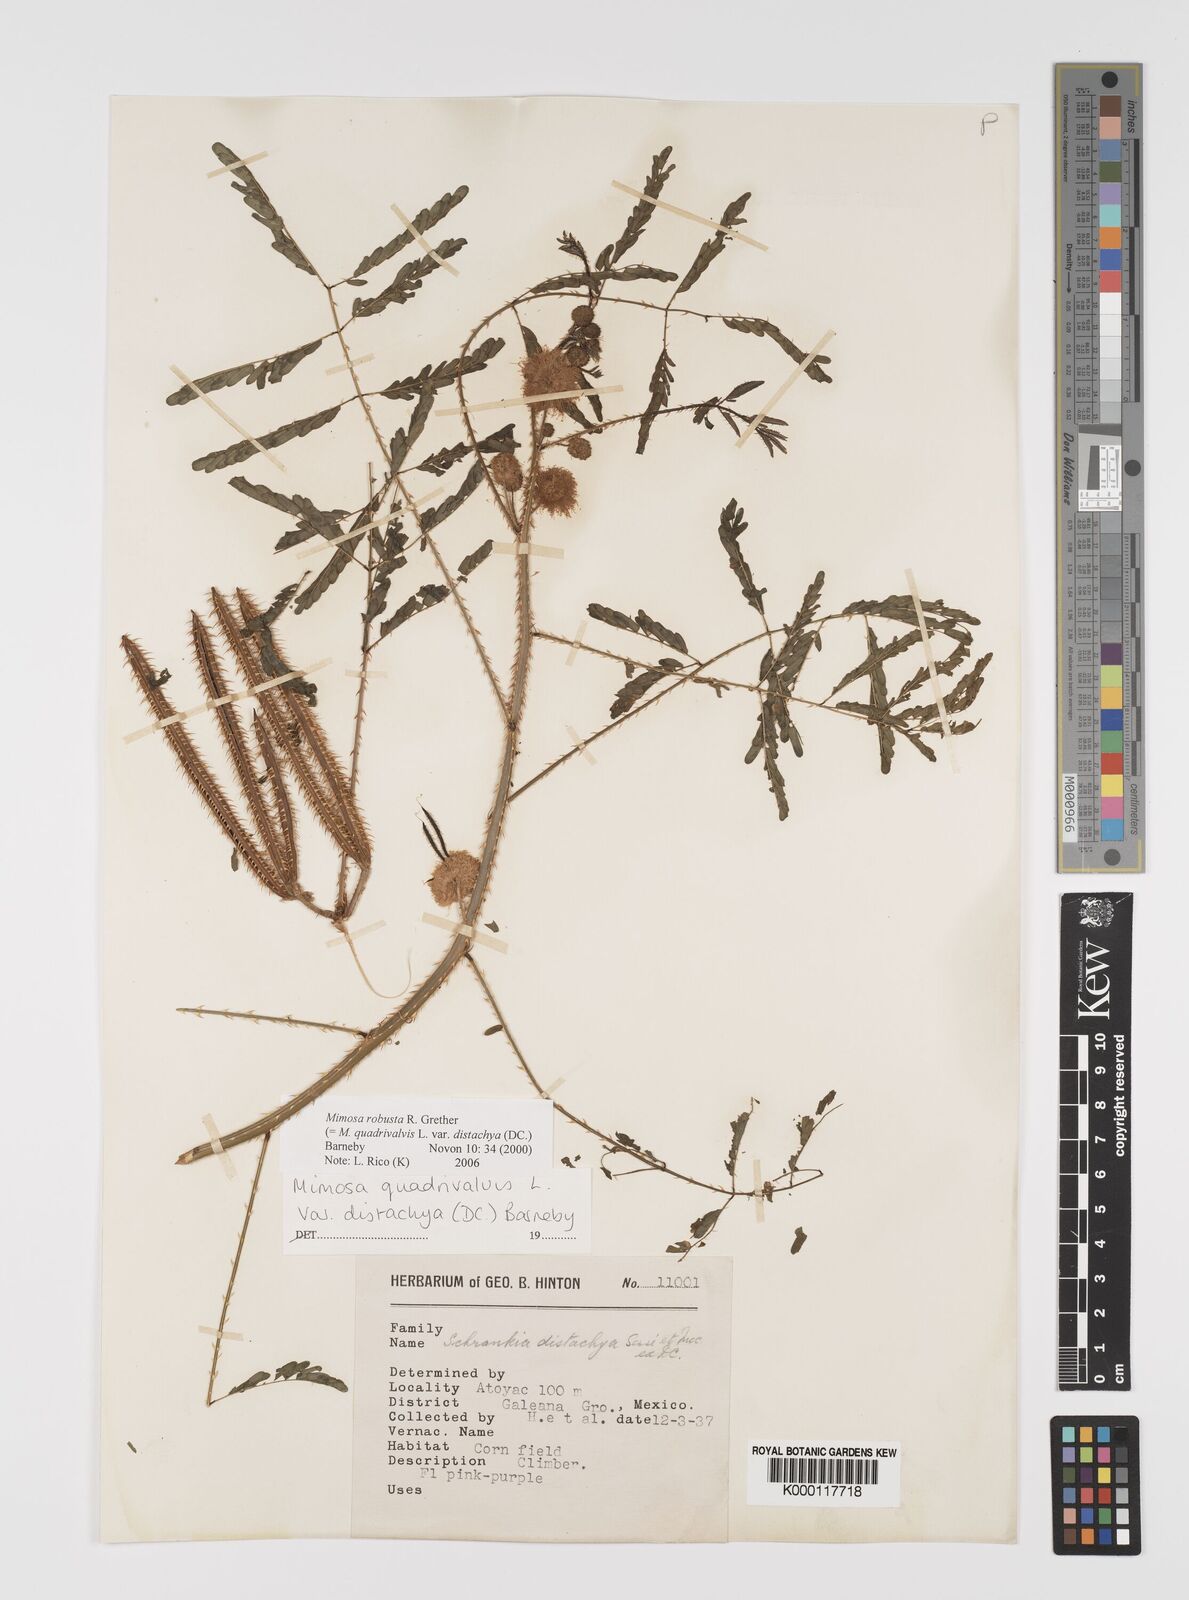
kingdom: Plantae
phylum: Tracheophyta
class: Magnoliopsida
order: Fabales
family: Fabaceae
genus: Mimosa
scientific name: Mimosa robusta
